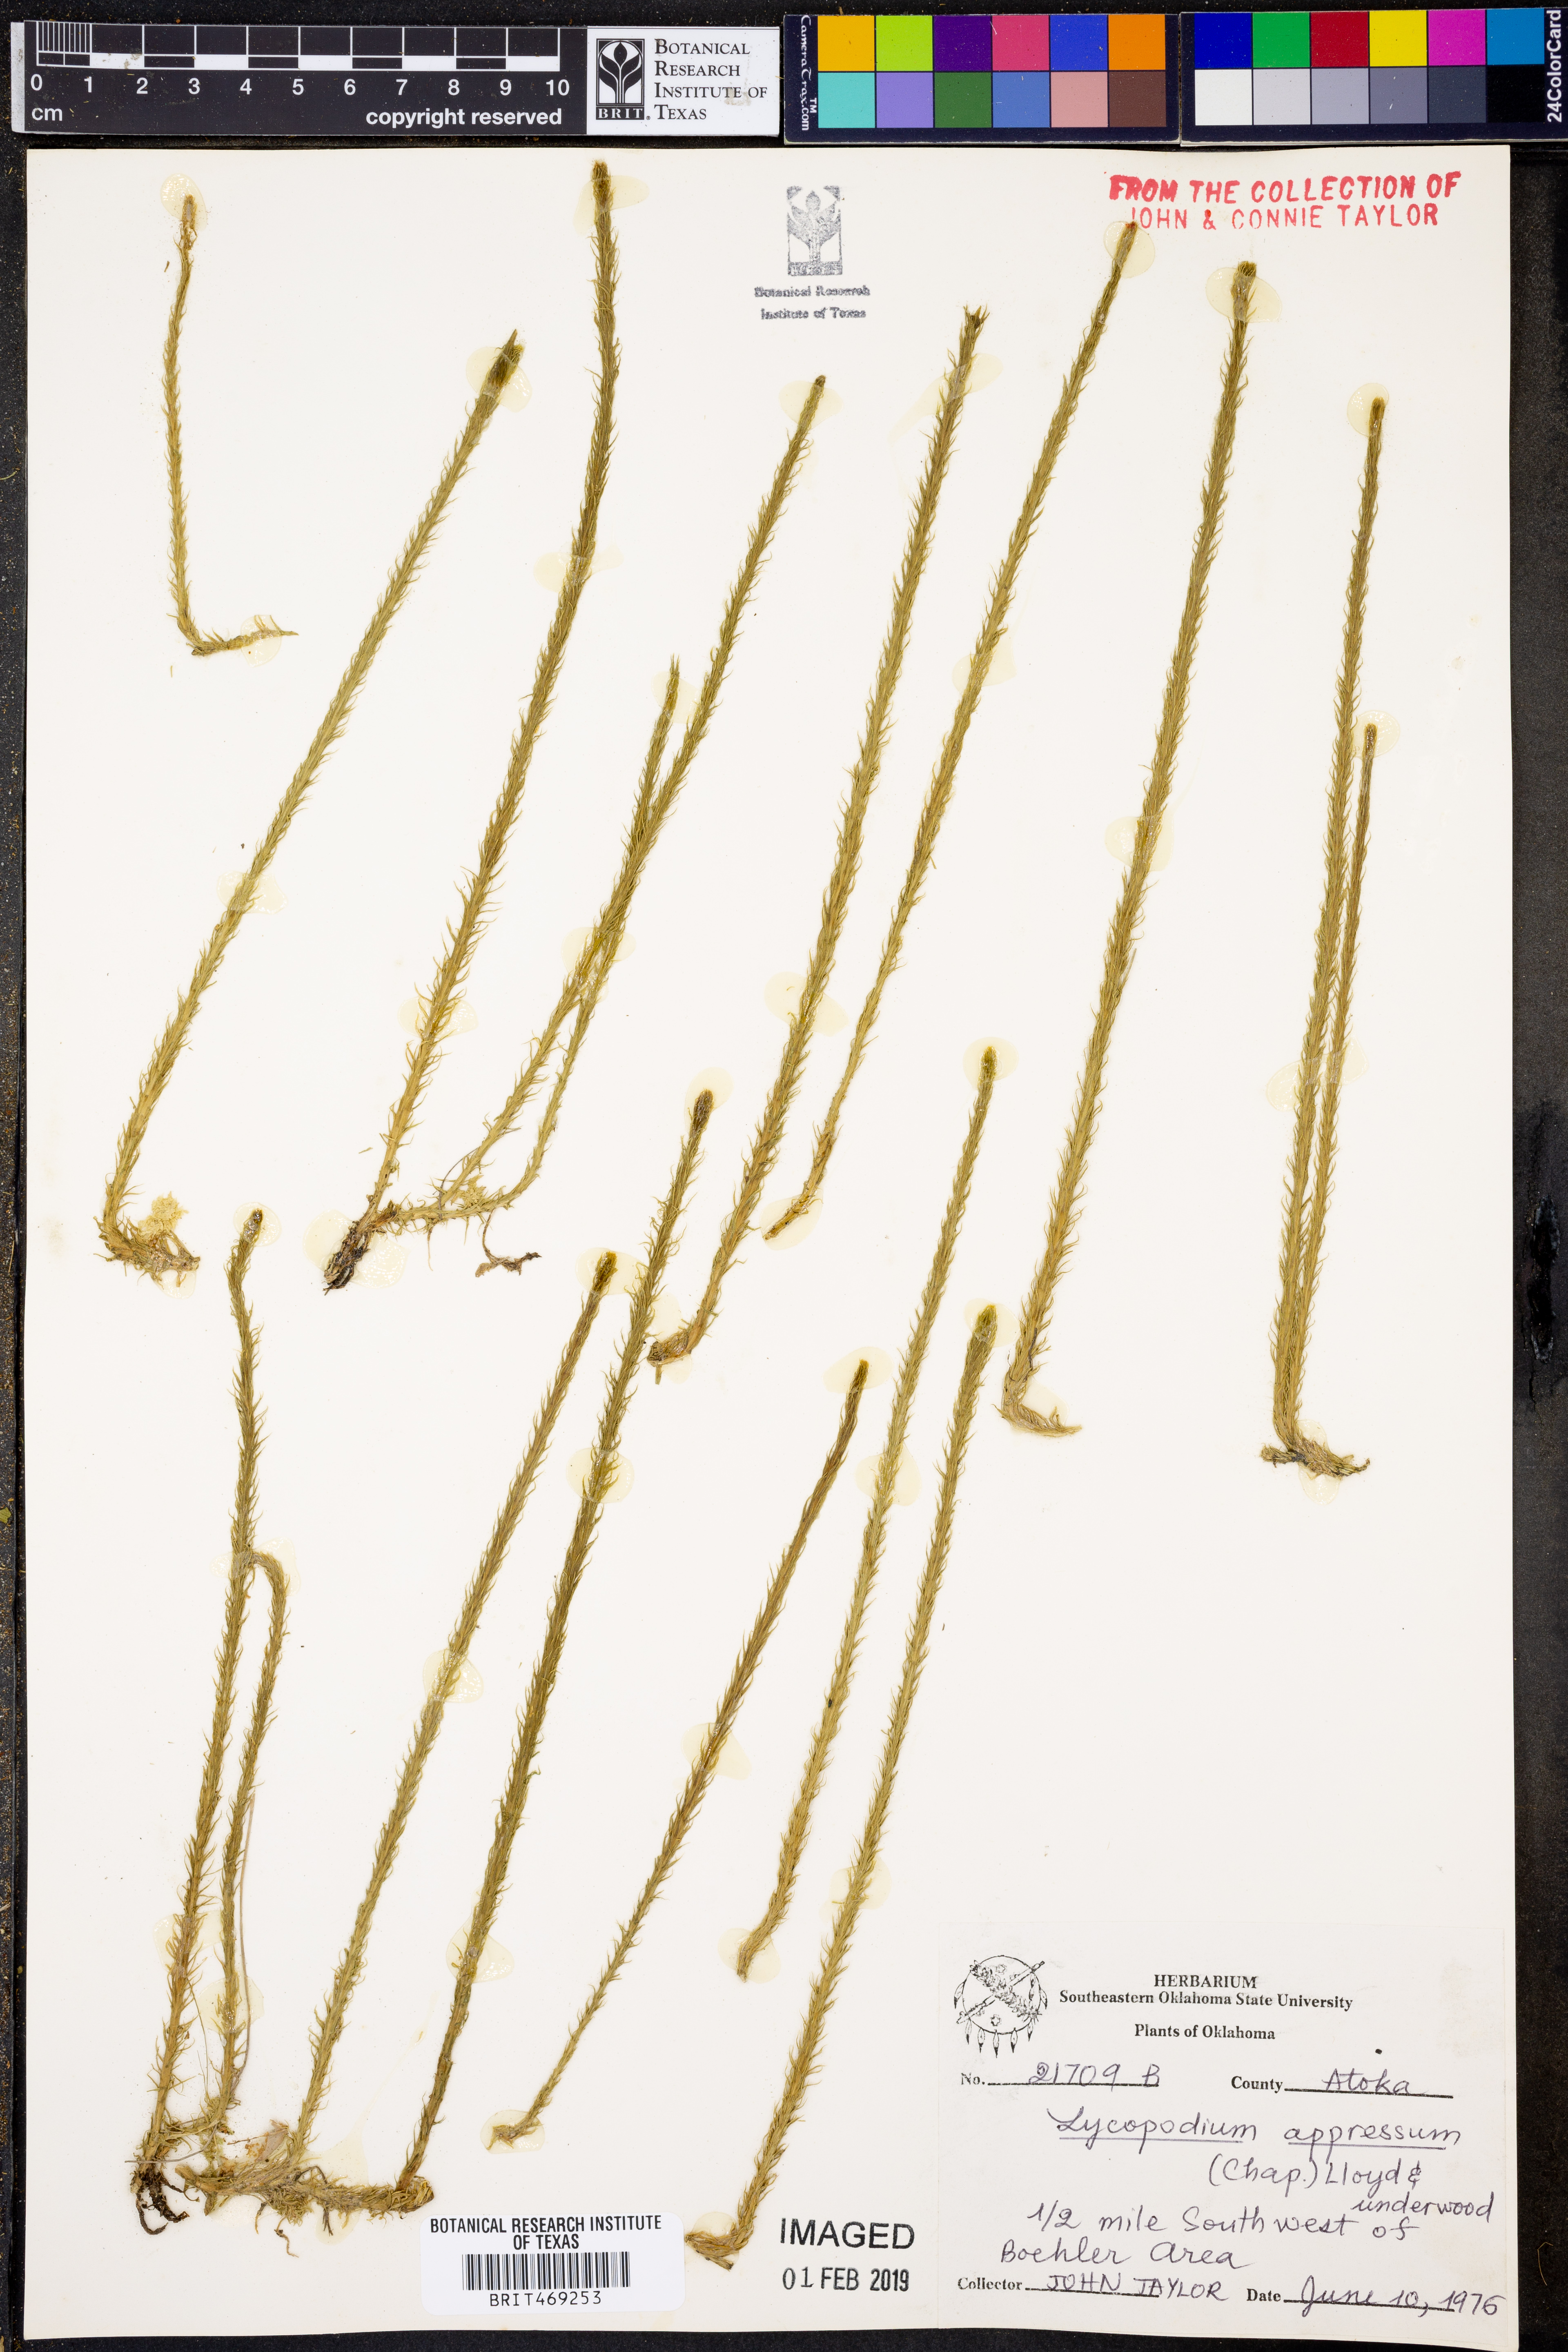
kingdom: Plantae
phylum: Tracheophyta
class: Lycopodiopsida
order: Lycopodiales
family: Lycopodiaceae
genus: Lycopodiella
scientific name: Lycopodiella appressa
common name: Appressed bog clubmoss
